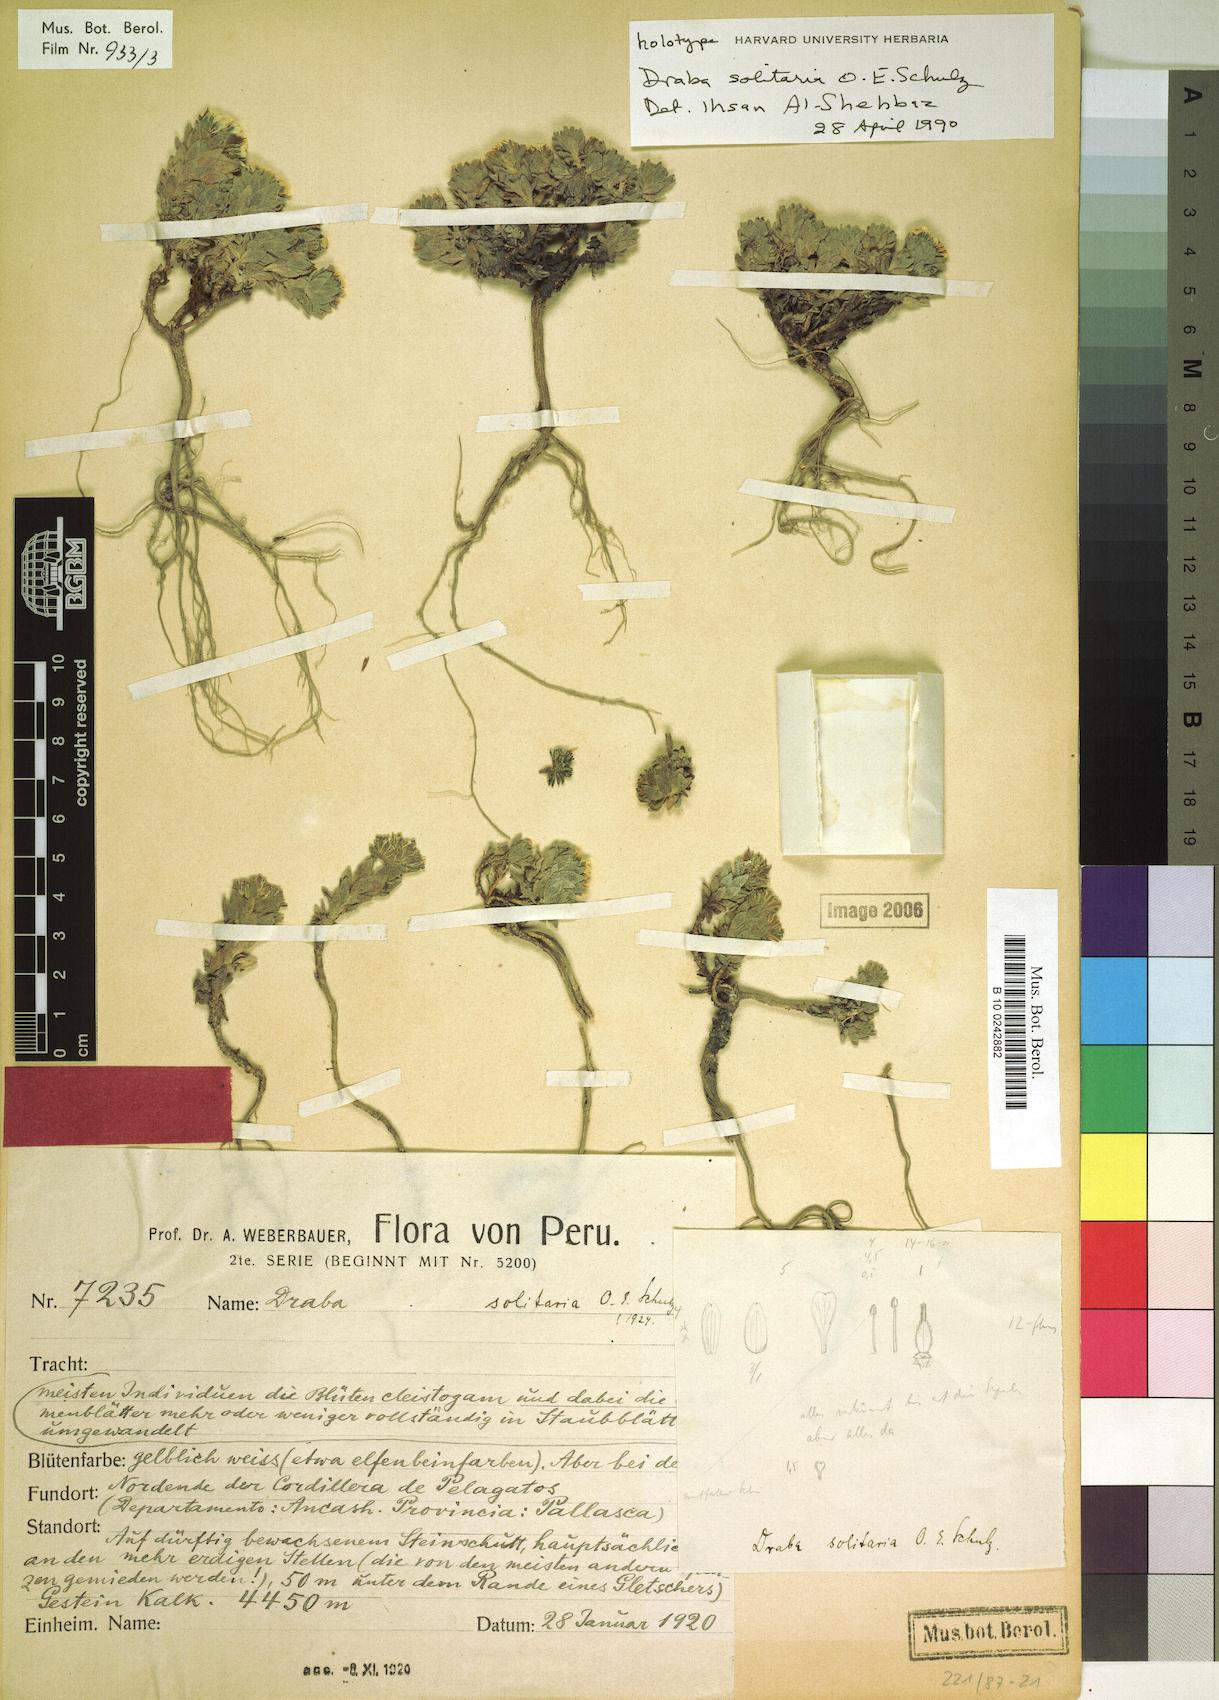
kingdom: Plantae
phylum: Tracheophyta
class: Magnoliopsida
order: Brassicales
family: Brassicaceae
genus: Draba
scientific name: Draba solitaria
